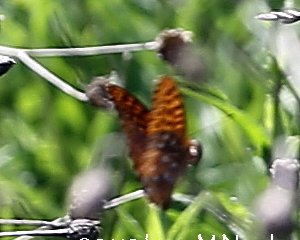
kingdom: Animalia
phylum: Arthropoda
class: Insecta
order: Lepidoptera
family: Nymphalidae
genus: Speyeria
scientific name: Speyeria
